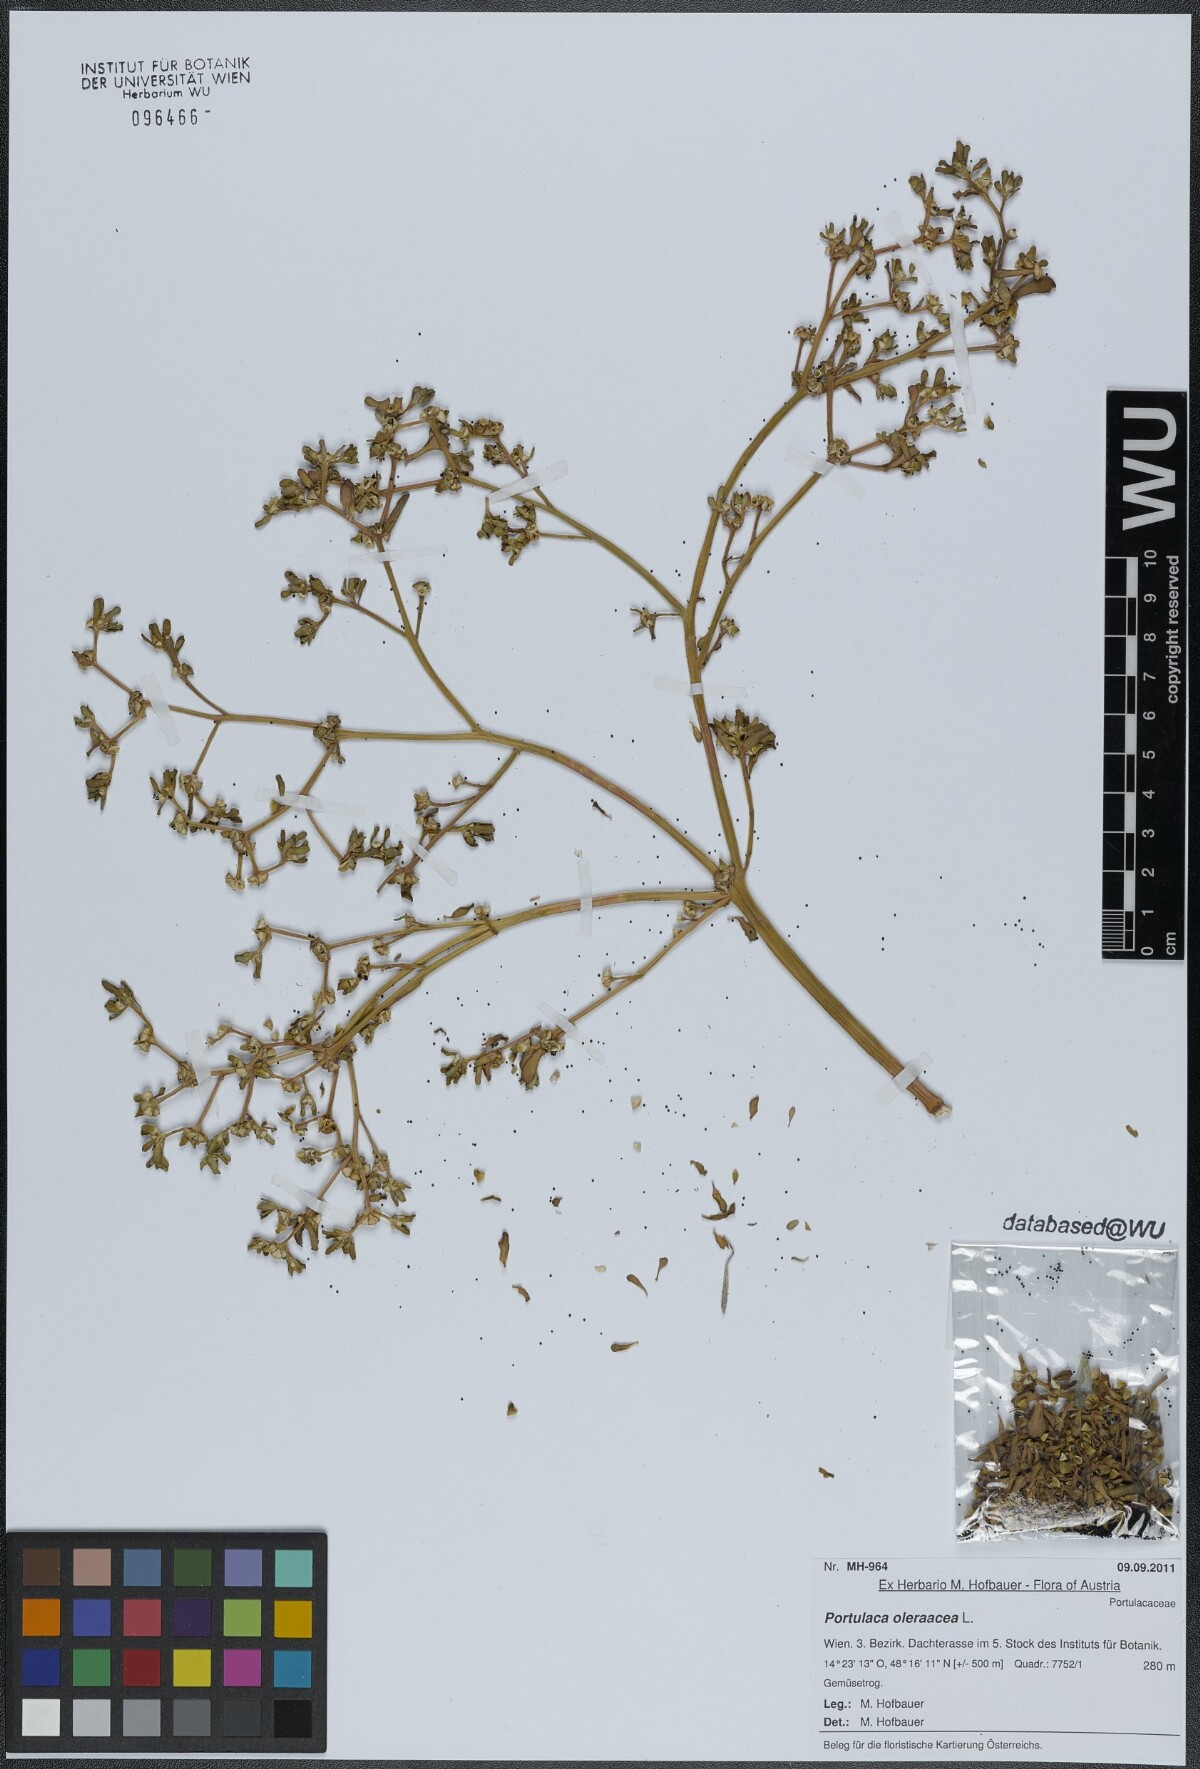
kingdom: Plantae
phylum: Tracheophyta
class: Magnoliopsida
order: Caryophyllales
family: Portulacaceae
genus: Portulaca
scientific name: Portulaca oleracea
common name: Common purslane
